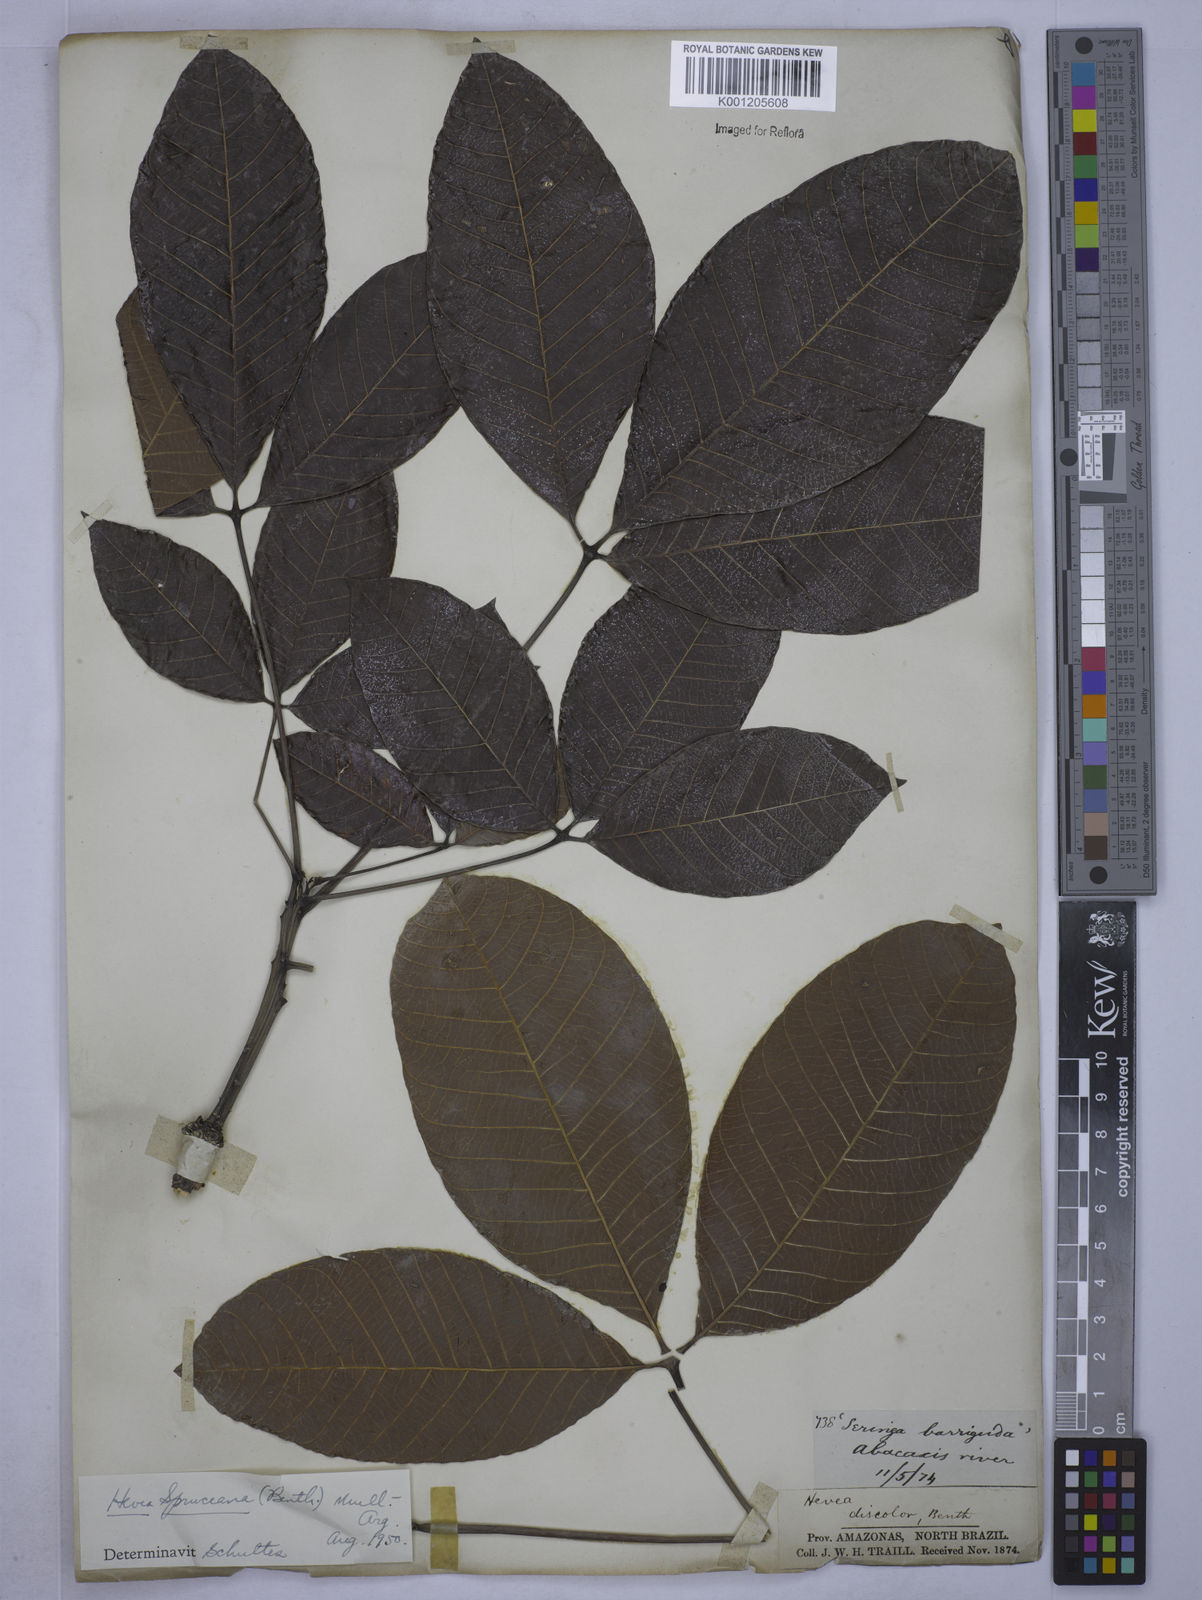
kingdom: Plantae
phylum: Tracheophyta
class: Magnoliopsida
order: Malpighiales
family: Euphorbiaceae
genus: Hevea
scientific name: Hevea
